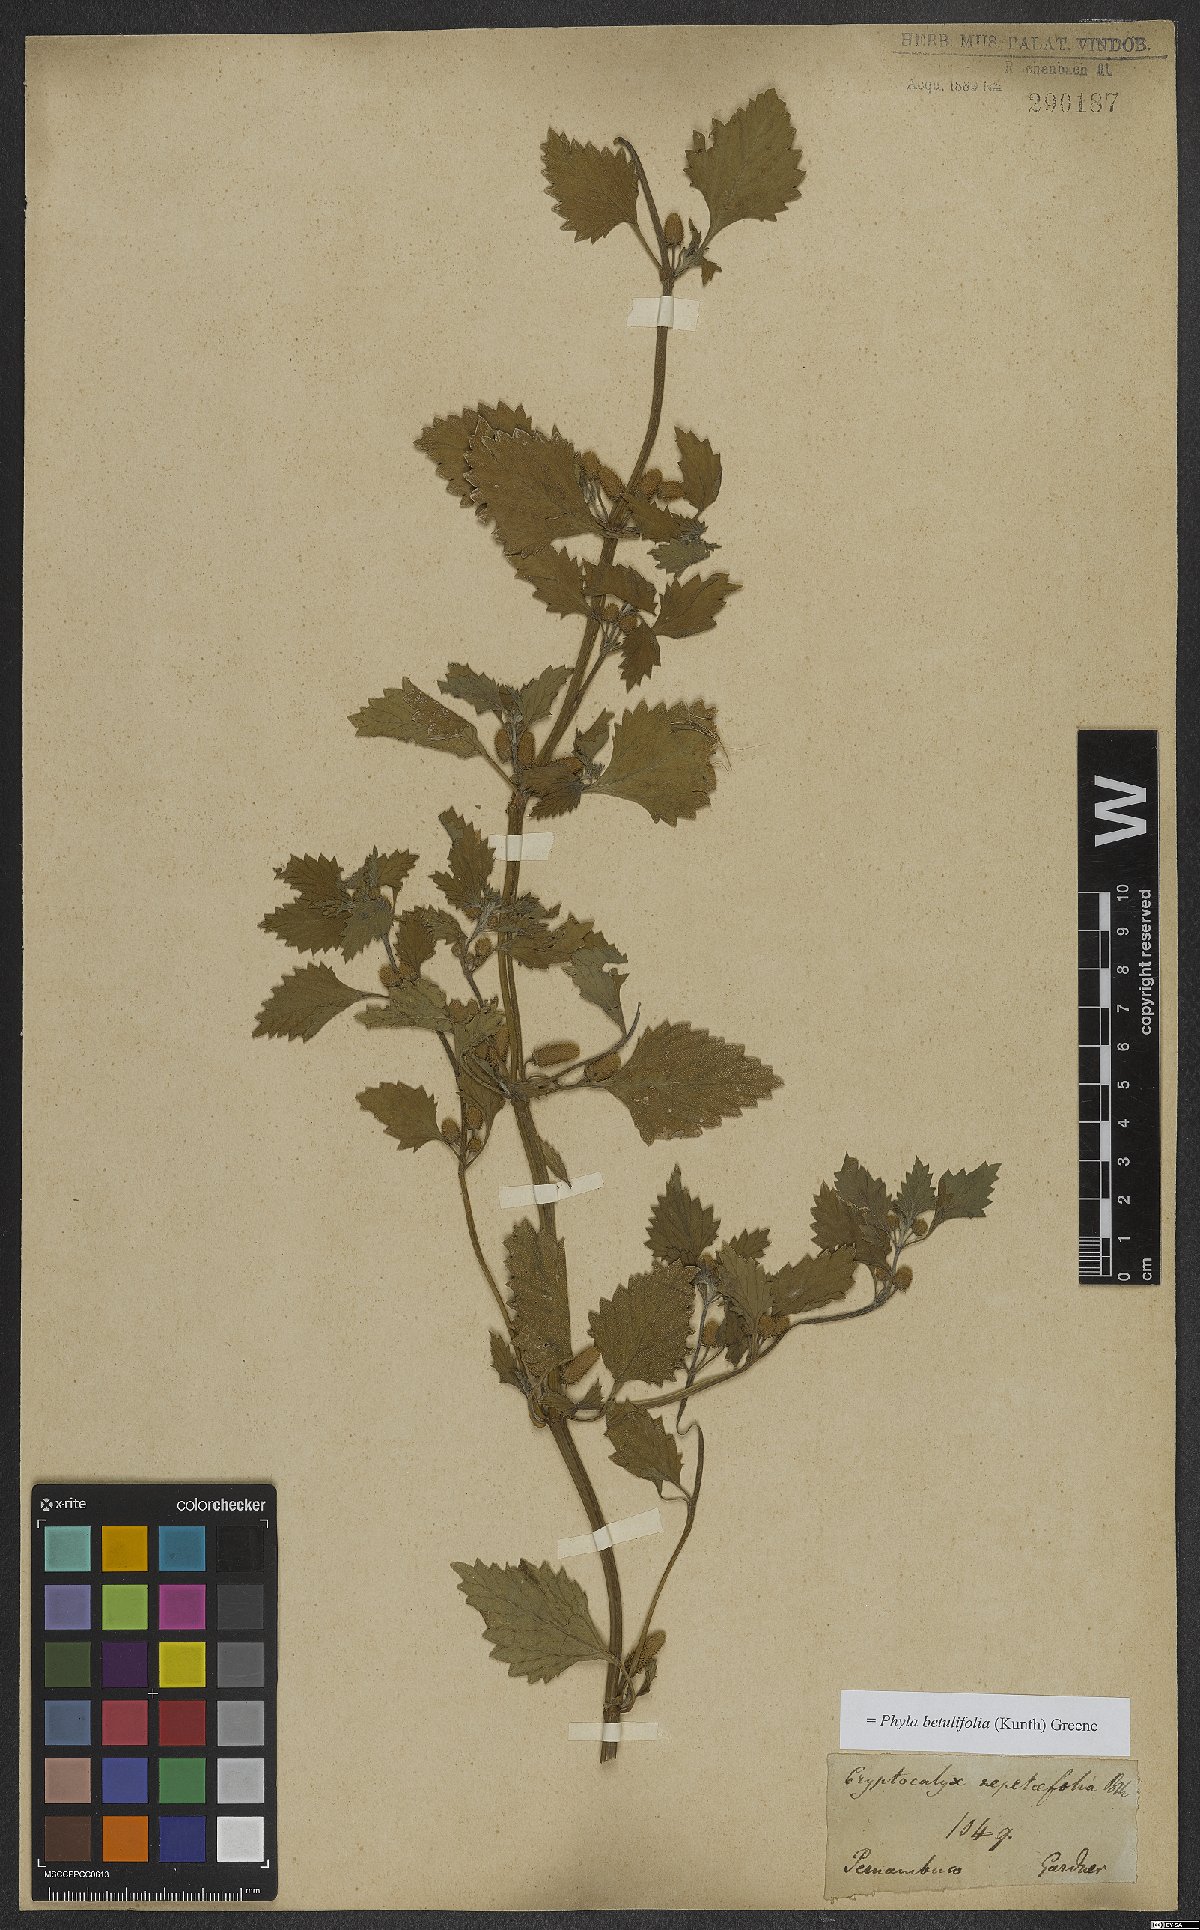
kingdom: Plantae
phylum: Tracheophyta
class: Magnoliopsida
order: Lamiales
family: Verbenaceae
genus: Phyla
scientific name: Phyla betulifolia
